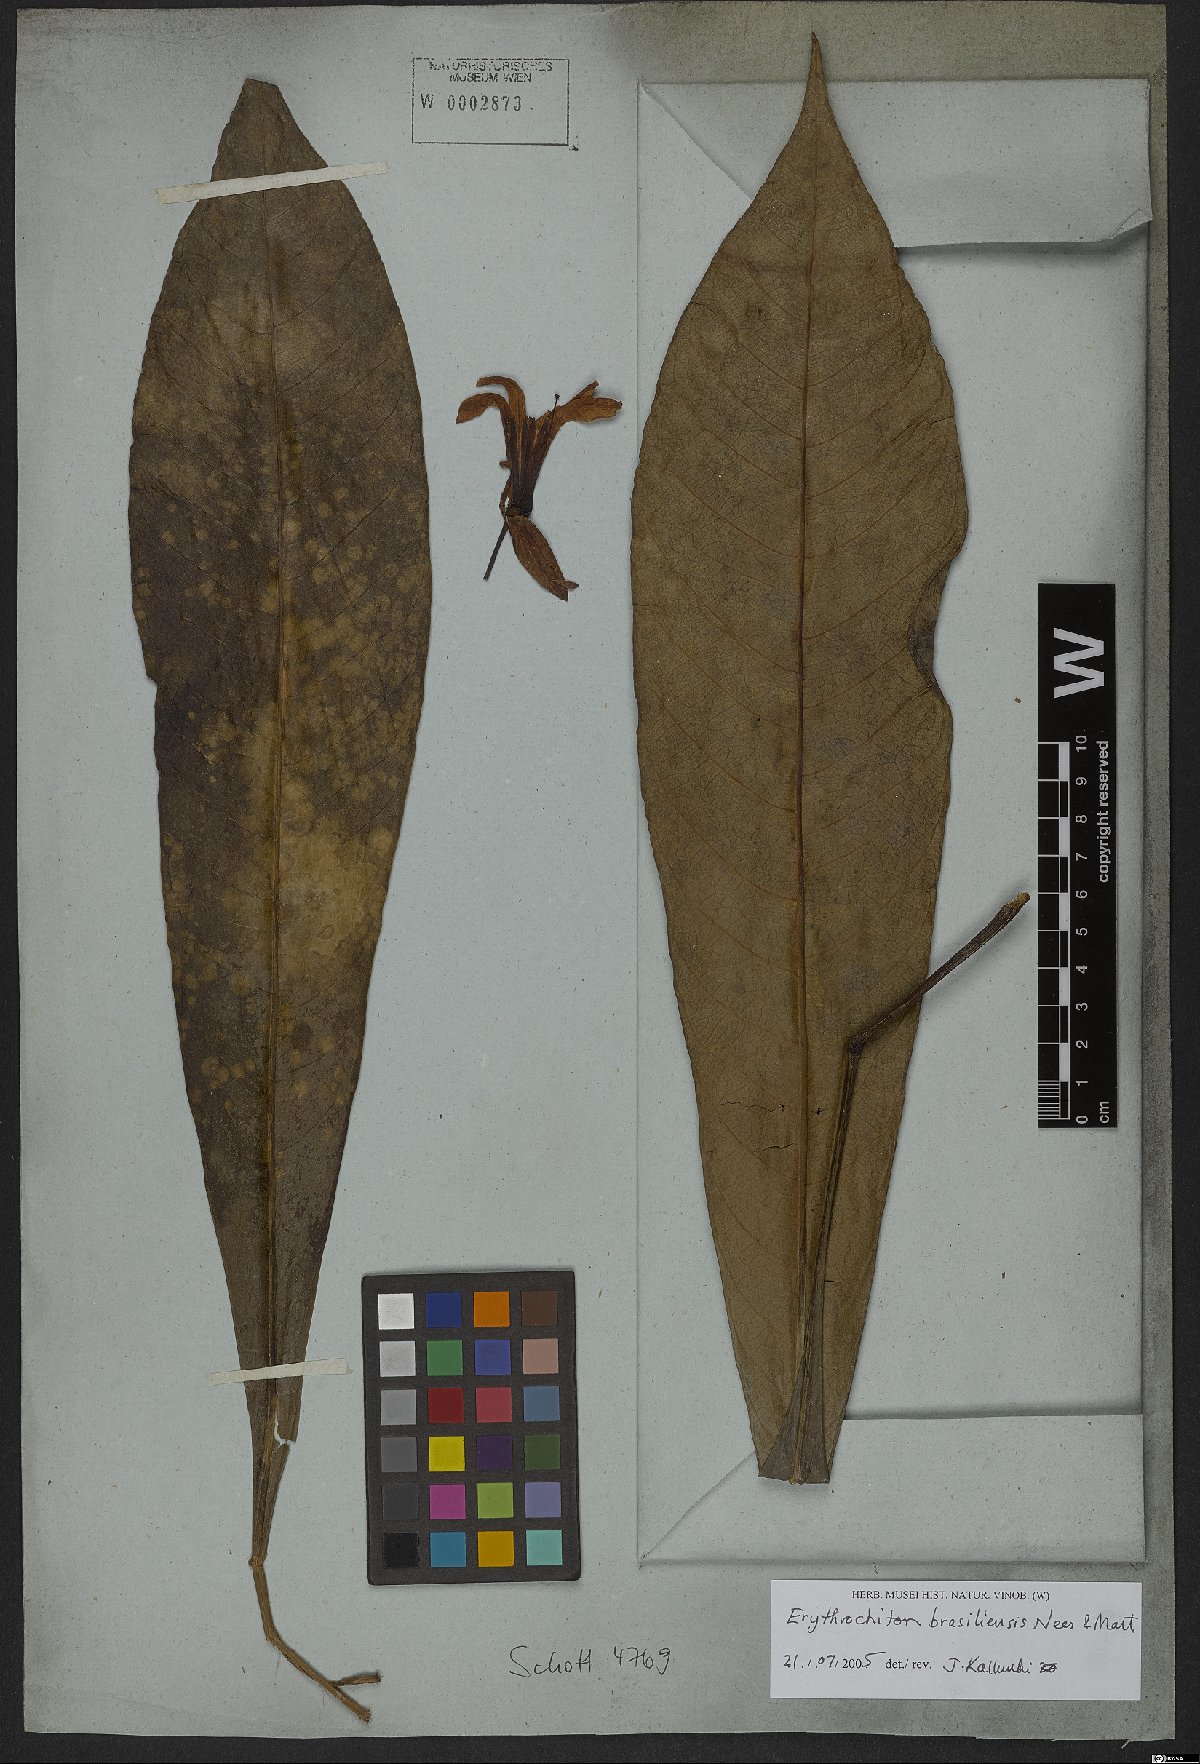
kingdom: Plantae
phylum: Tracheophyta
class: Magnoliopsida
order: Sapindales
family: Rutaceae
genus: Erythrochiton
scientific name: Erythrochiton brasiliensis
